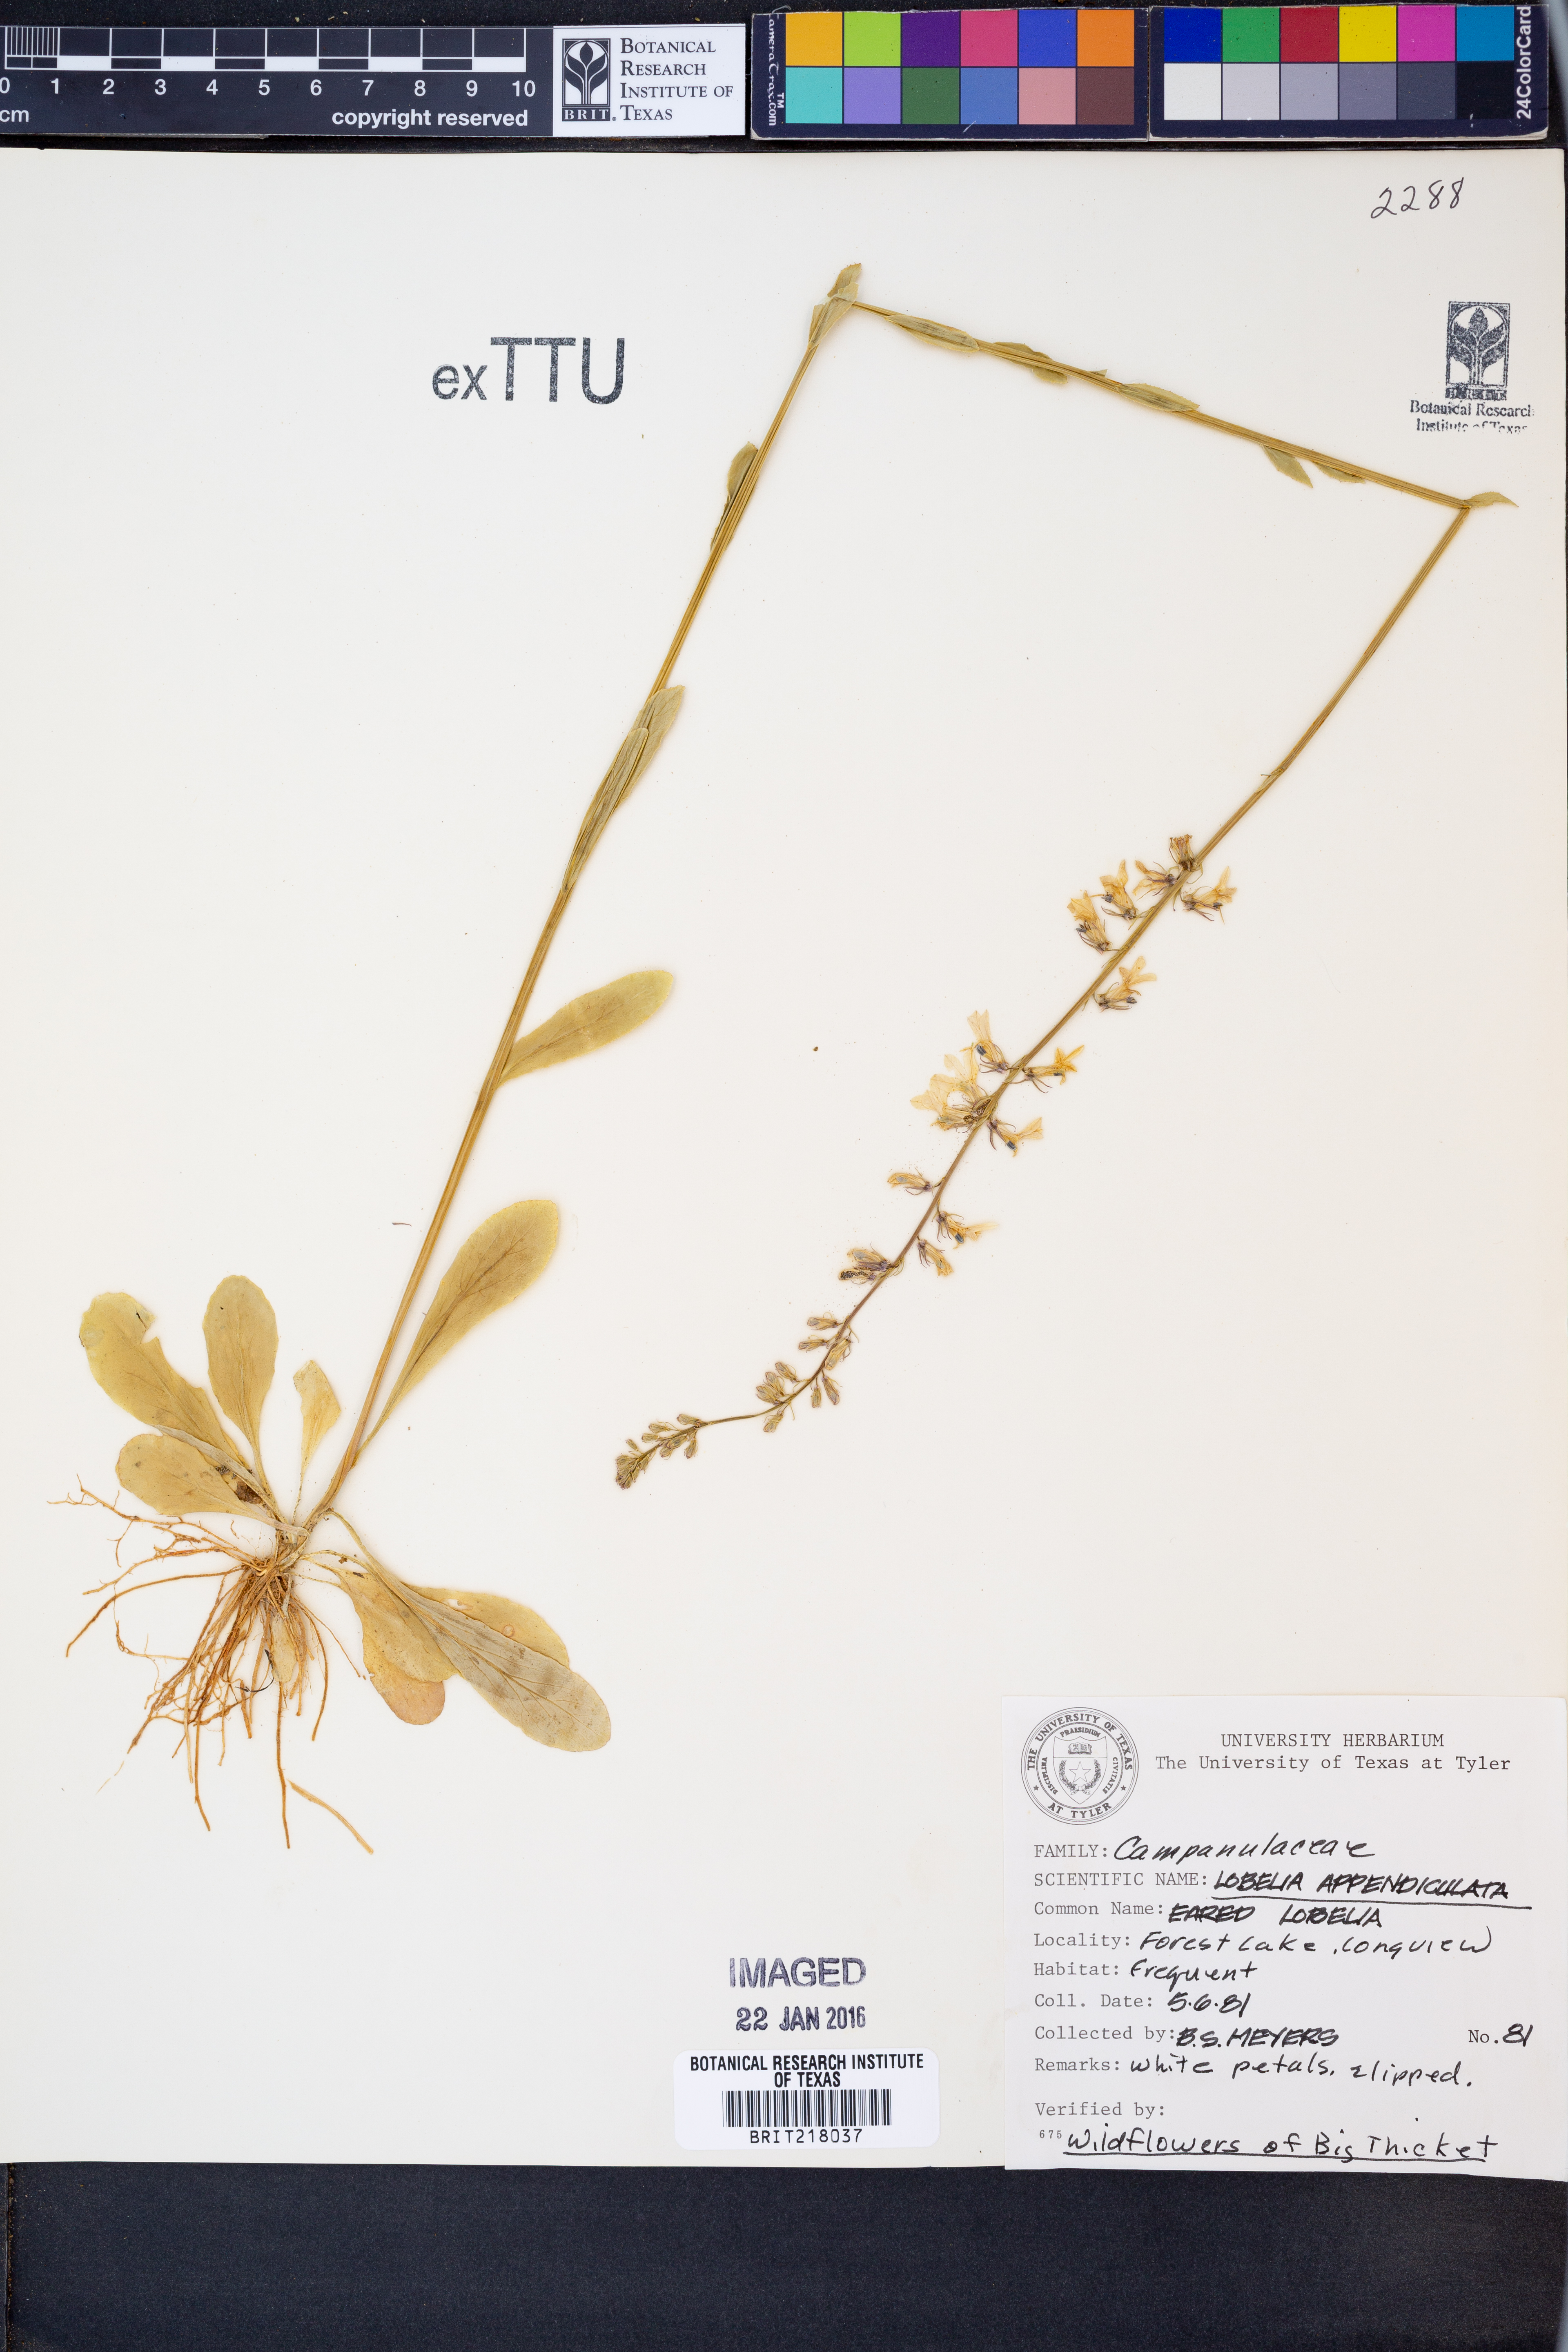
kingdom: Plantae
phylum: Tracheophyta
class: Magnoliopsida
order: Asterales
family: Campanulaceae
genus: Lobelia
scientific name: Lobelia appendiculata
